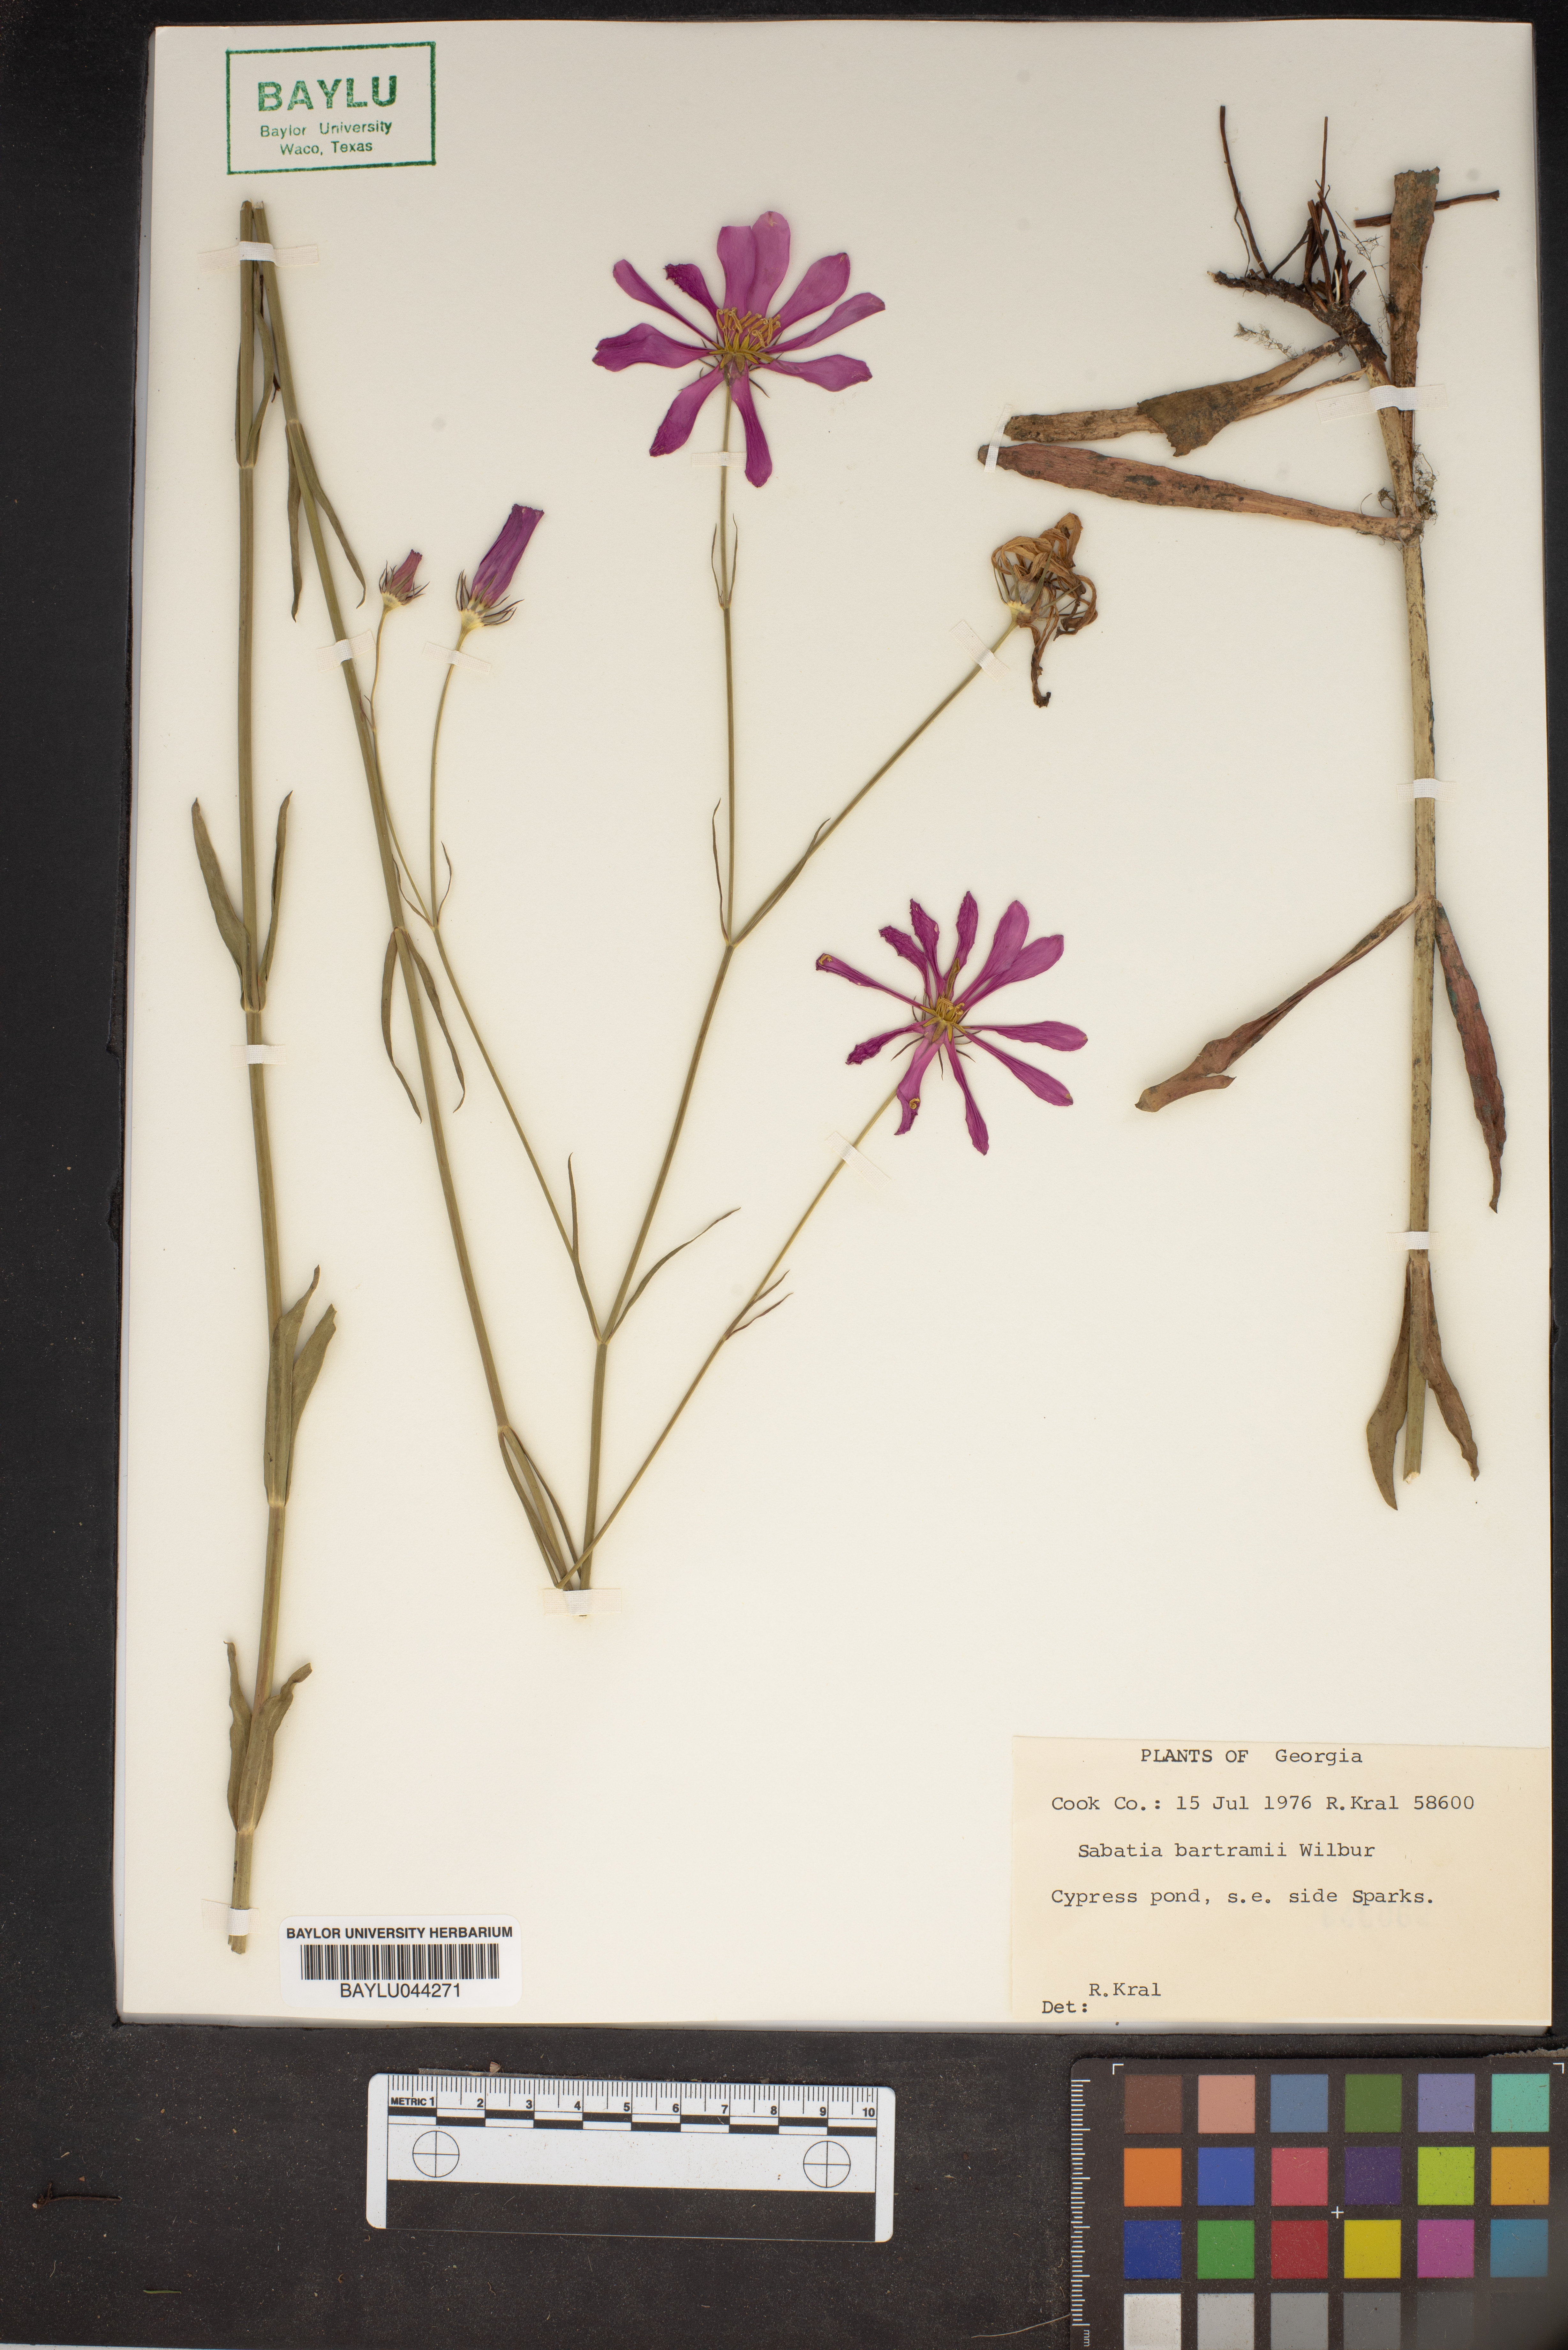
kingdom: Plantae
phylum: Tracheophyta
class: Magnoliopsida
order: Gentianales
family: Gentianaceae
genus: Sabatia
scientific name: Sabatia decandra
